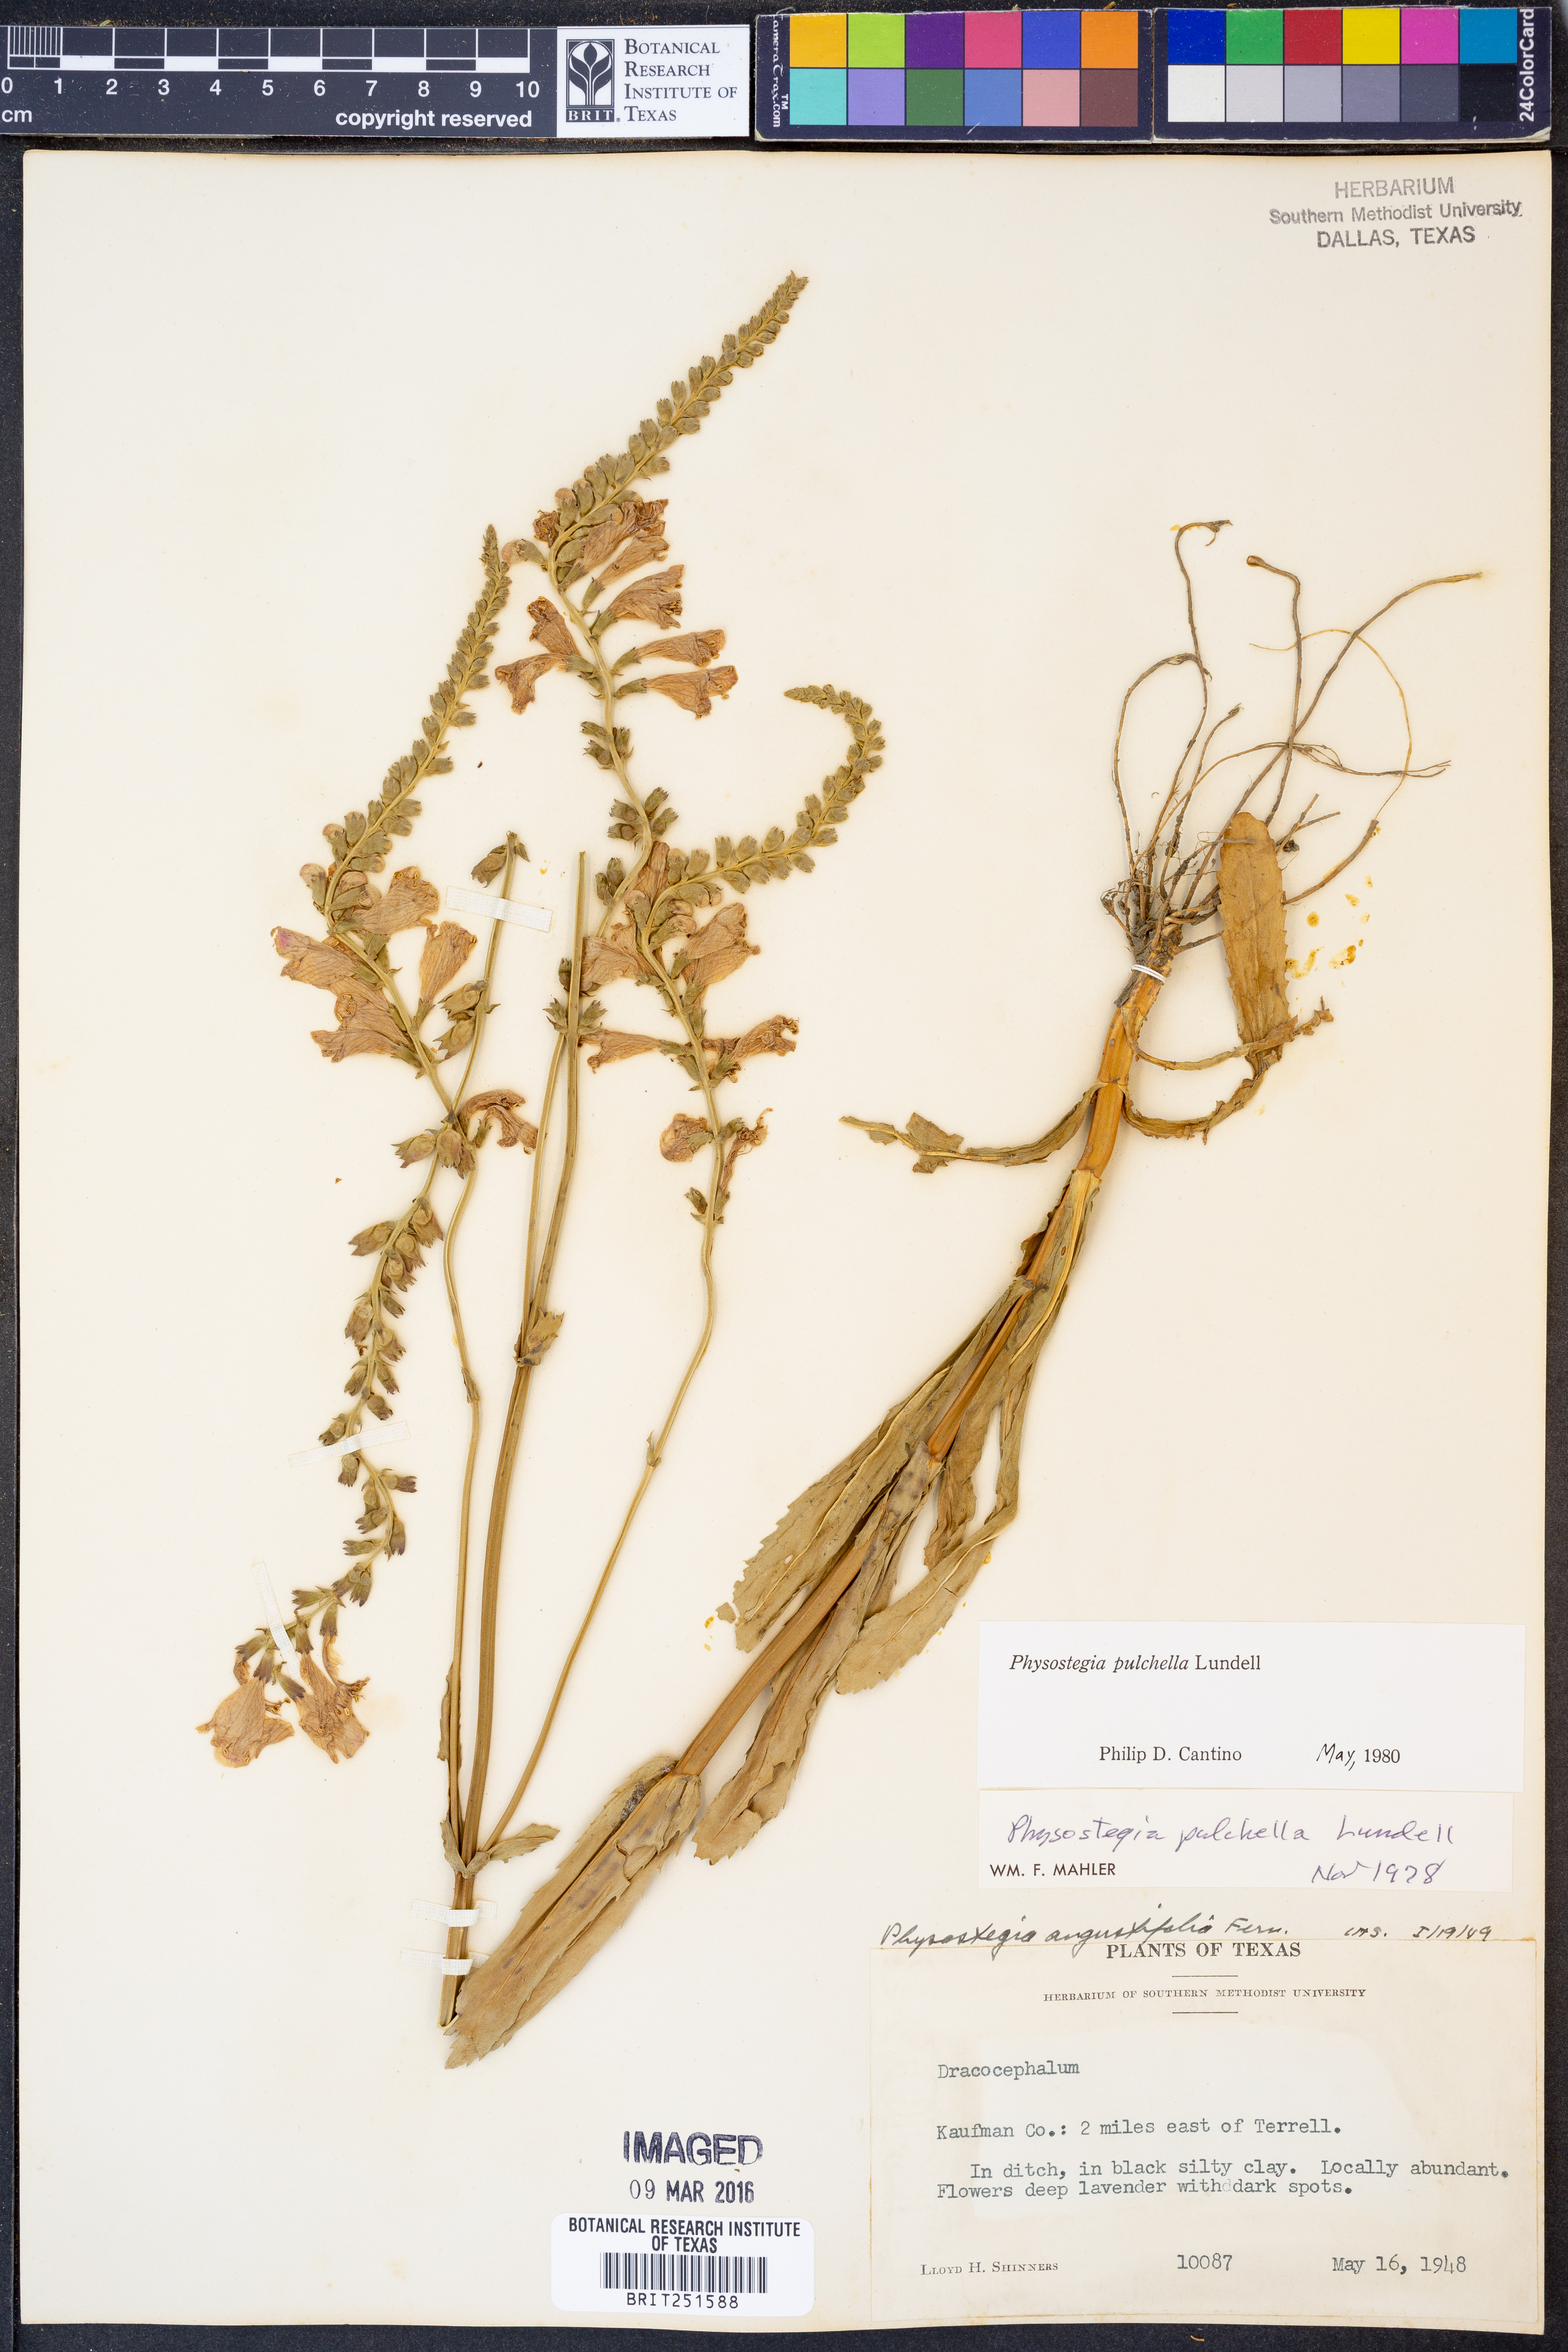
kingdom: Plantae
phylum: Tracheophyta
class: Magnoliopsida
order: Lamiales
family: Lamiaceae
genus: Physostegia
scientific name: Physostegia pulchella
